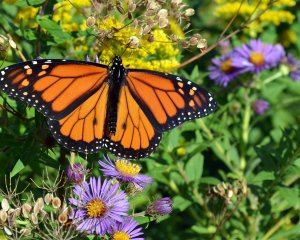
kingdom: Animalia
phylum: Arthropoda
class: Insecta
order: Lepidoptera
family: Nymphalidae
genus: Danaus
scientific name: Danaus plexippus
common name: Monarch
